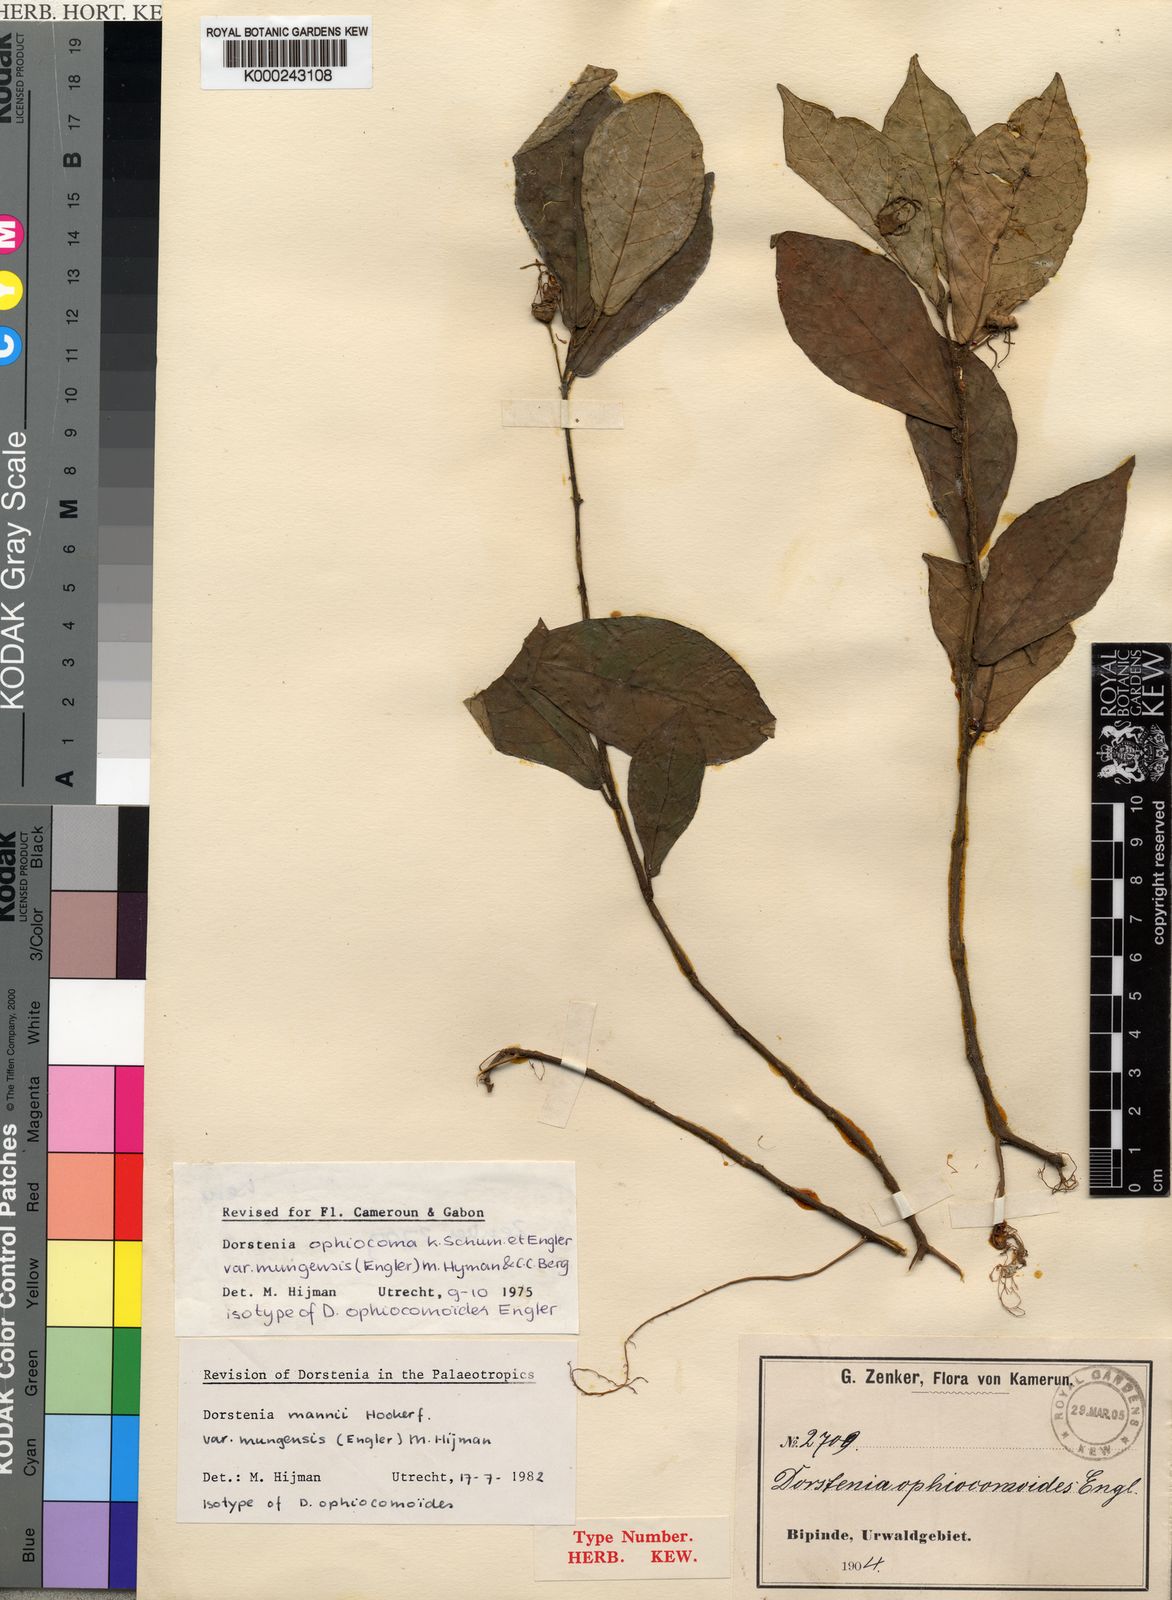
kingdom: Plantae
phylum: Tracheophyta
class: Magnoliopsida
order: Rosales
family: Moraceae
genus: Dorstenia
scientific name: Dorstenia mannii
